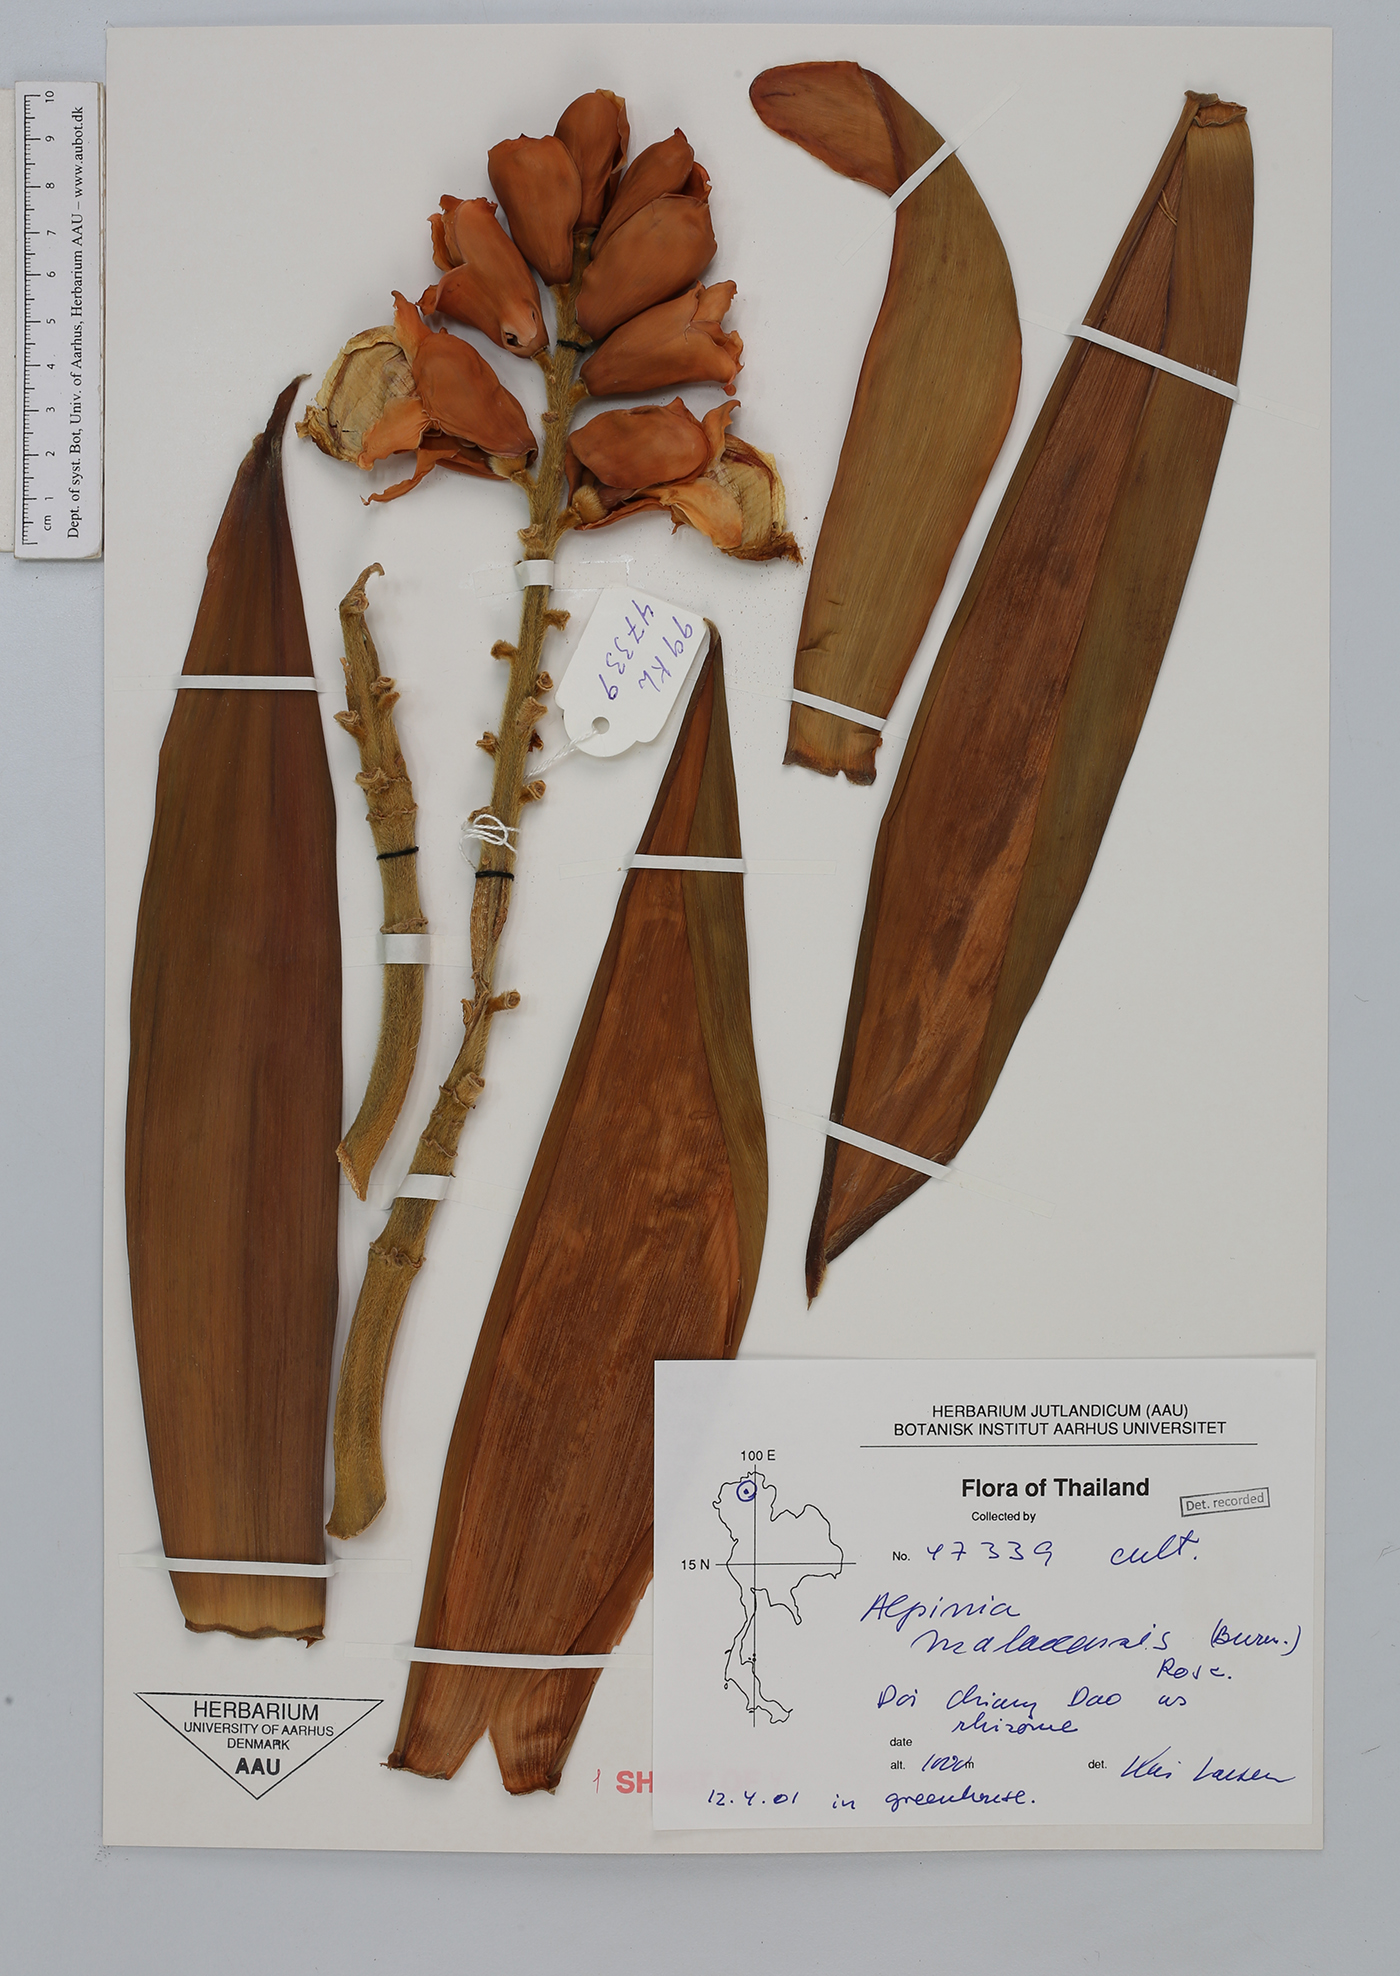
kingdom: Plantae
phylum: Tracheophyta
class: Liliopsida
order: Zingiberales
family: Zingiberaceae
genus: Alpinia
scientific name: Alpinia malaccensis
